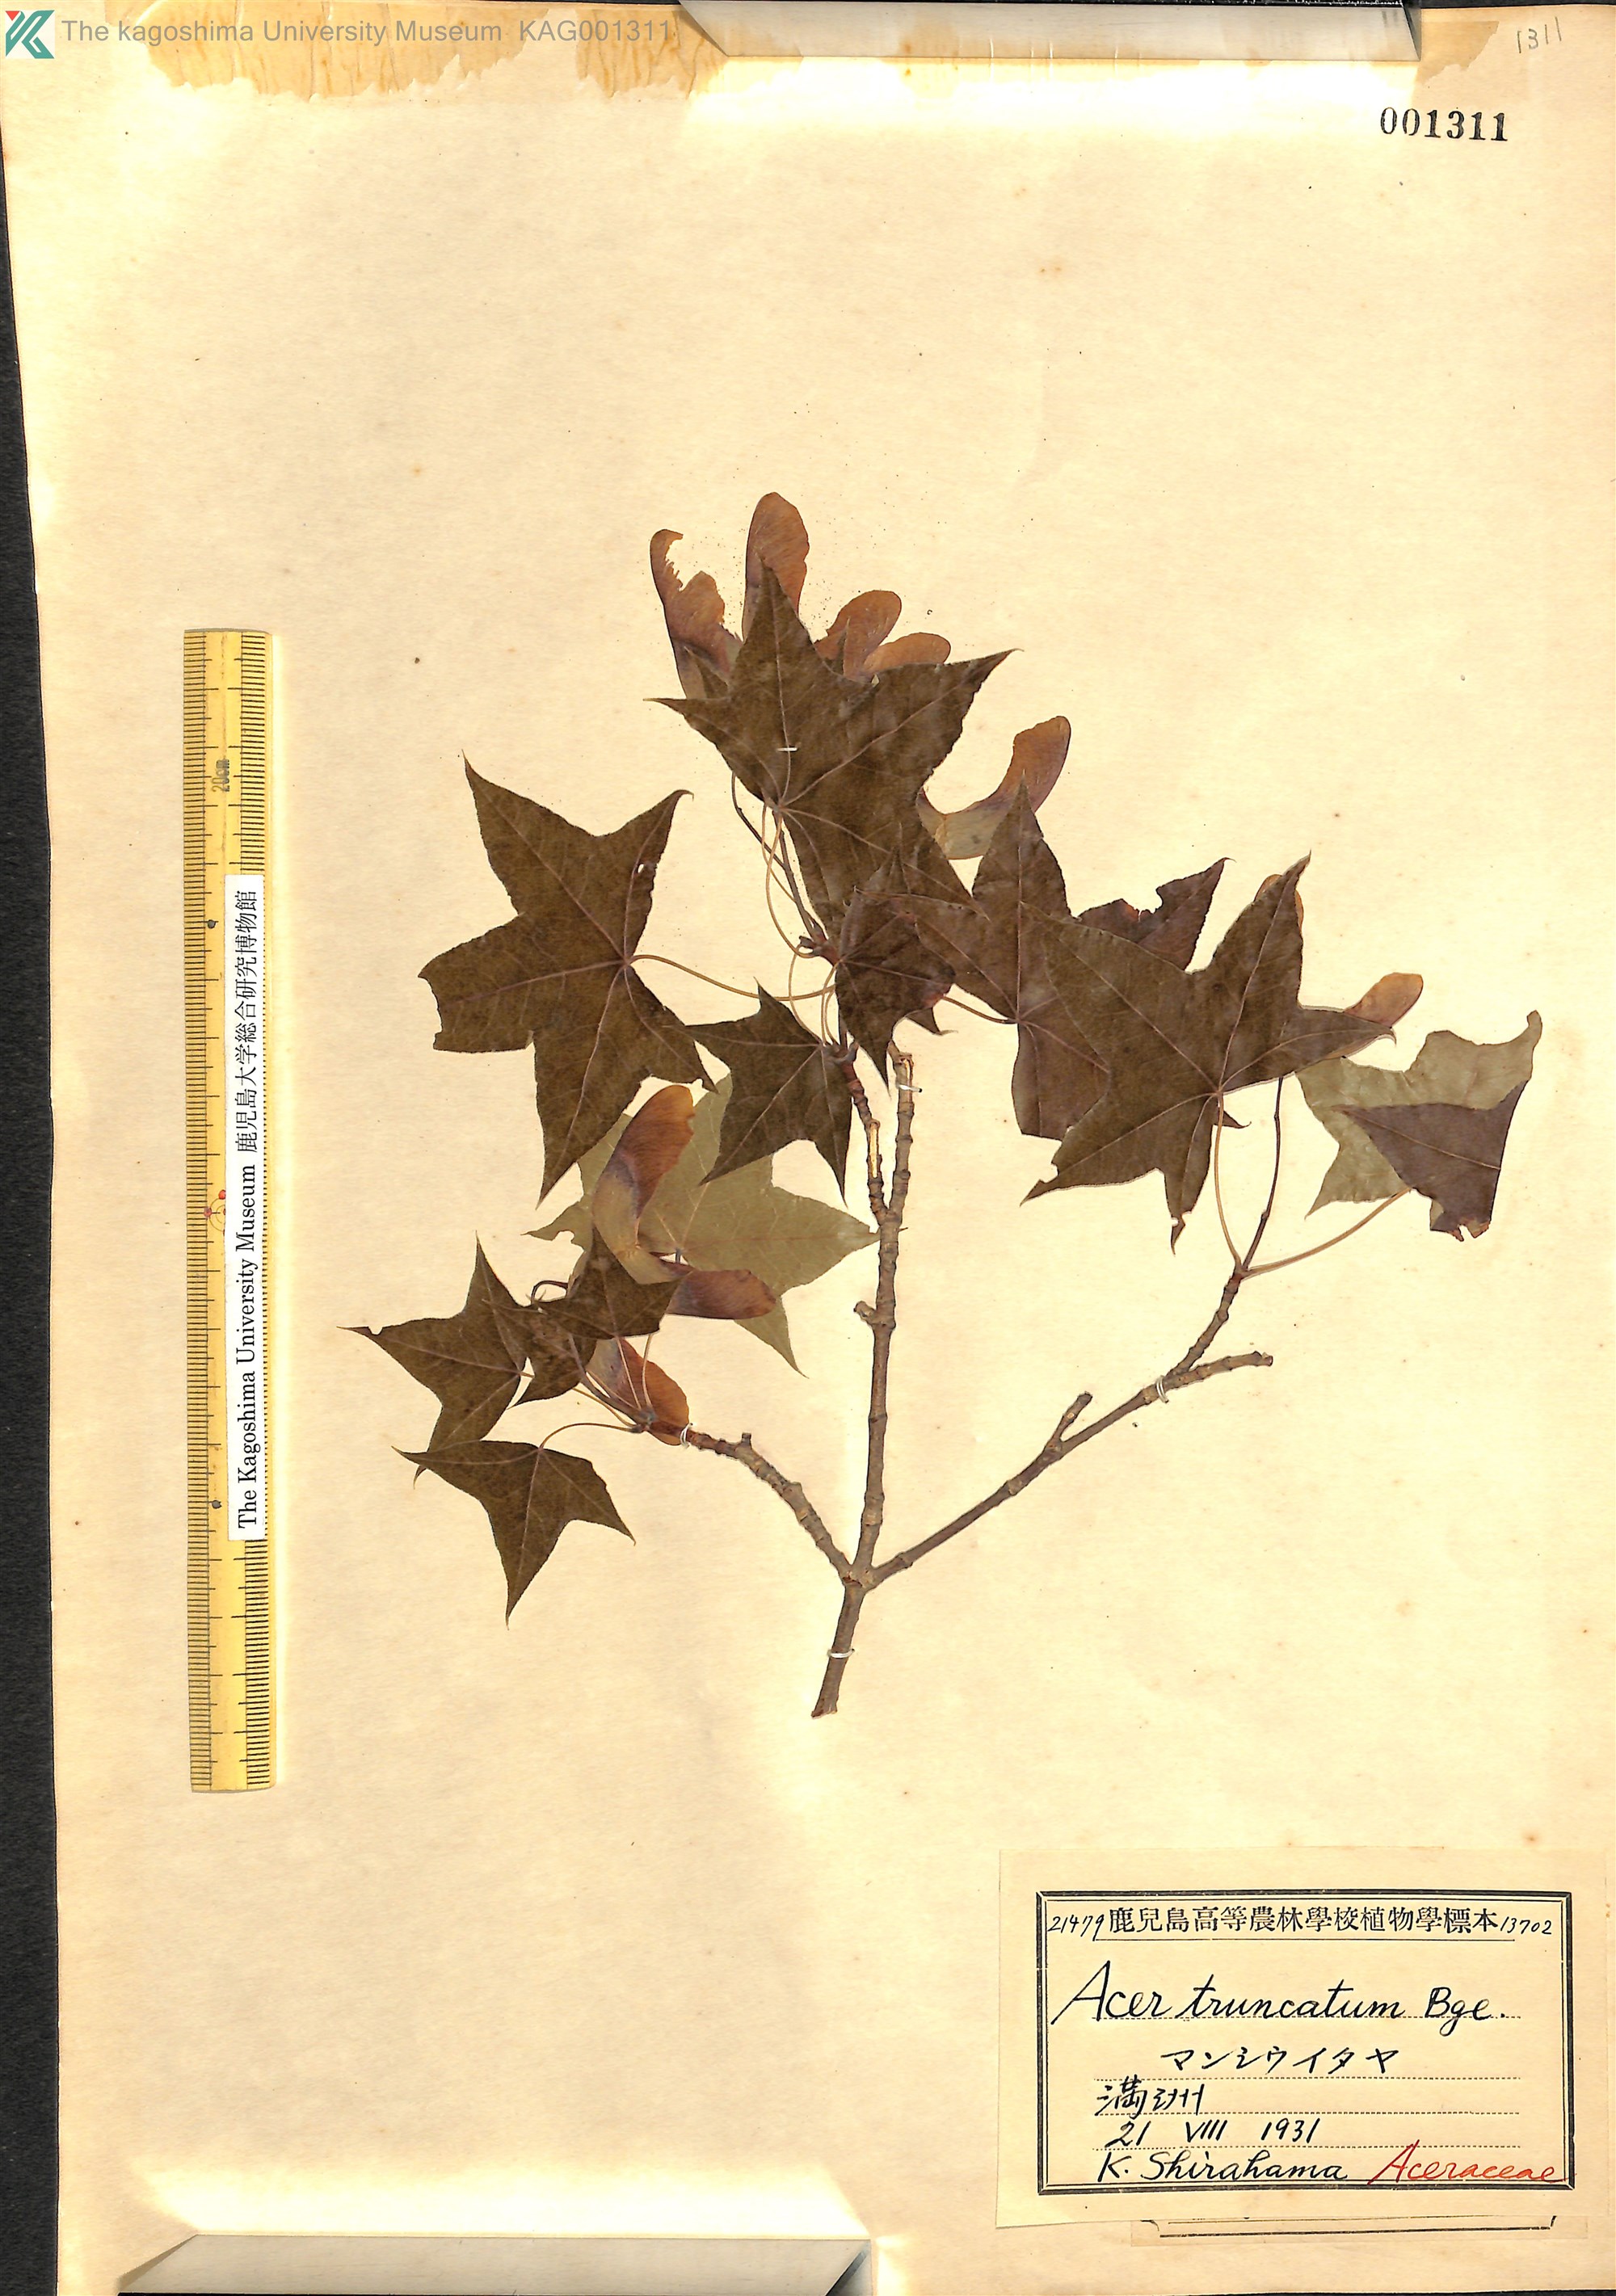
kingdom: Plantae
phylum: Tracheophyta
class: Magnoliopsida
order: Sapindales
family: Sapindaceae
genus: Acer
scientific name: Acer truncatum
